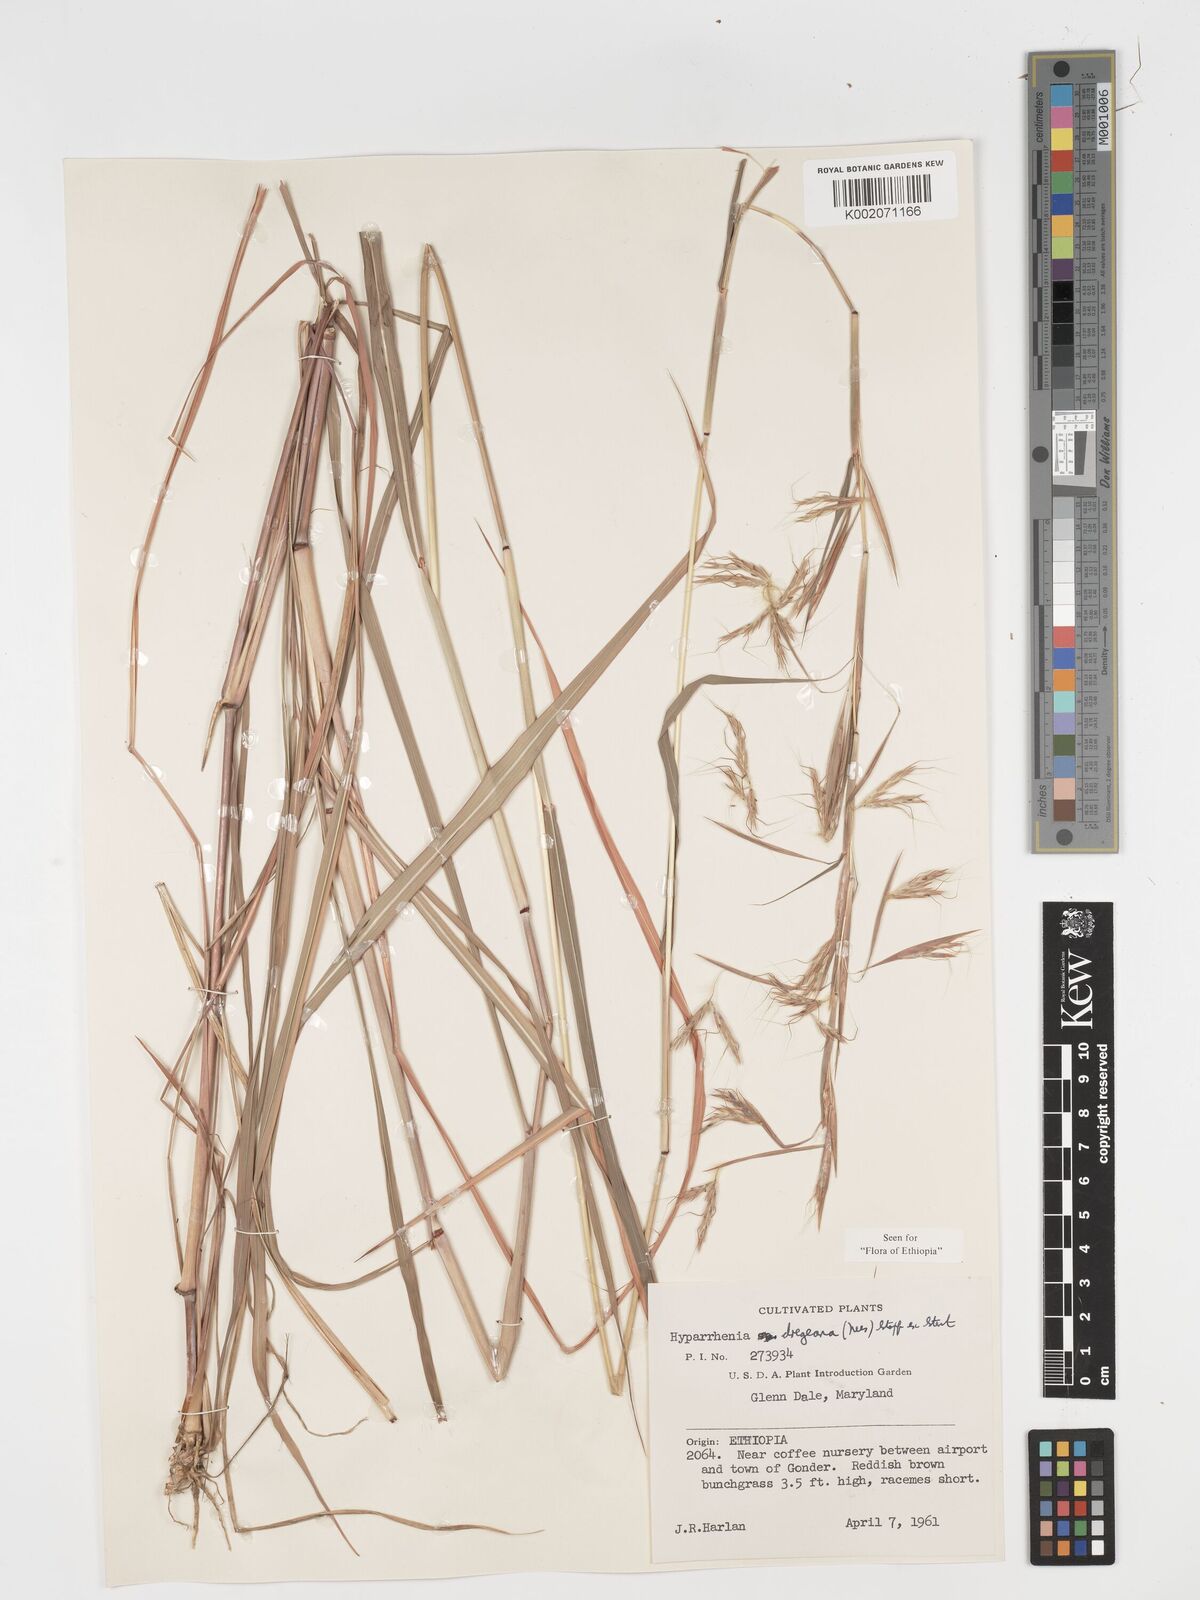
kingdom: Plantae
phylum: Tracheophyta
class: Liliopsida
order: Poales
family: Poaceae
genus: Hyparrhenia
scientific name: Hyparrhenia dregeana
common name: Silky thatching grass
